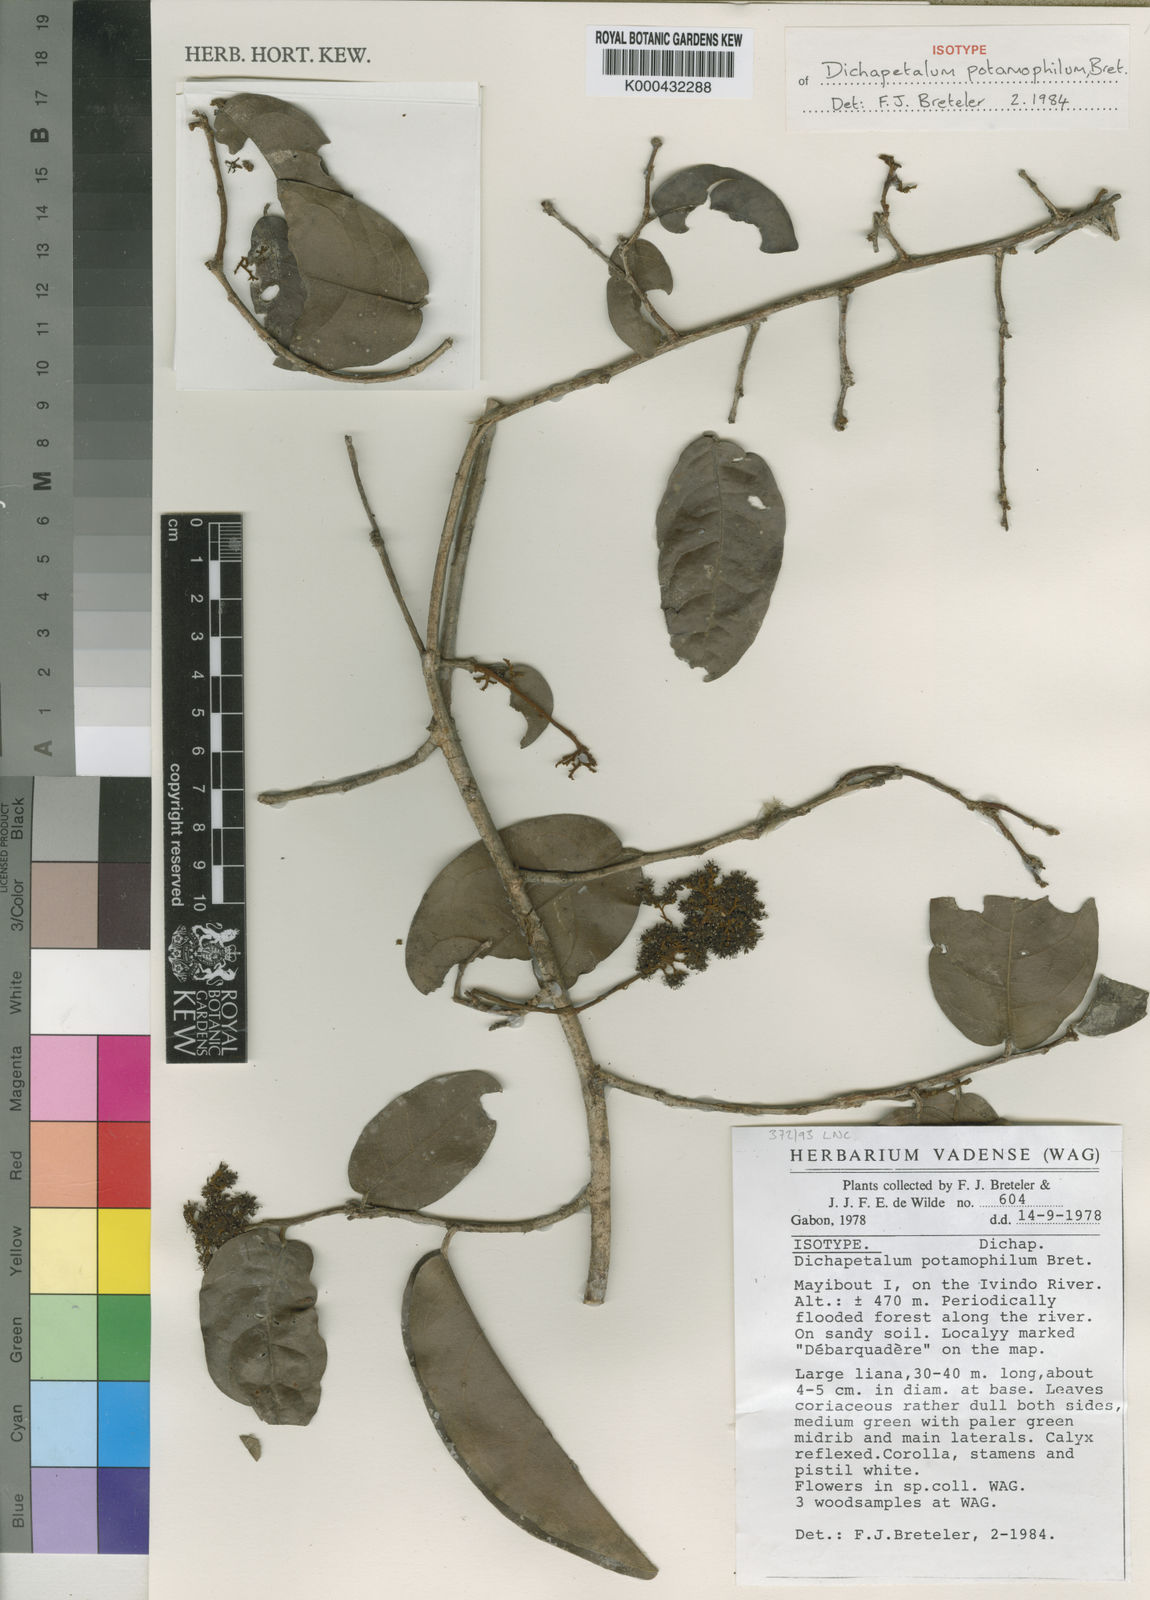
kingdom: Plantae
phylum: Tracheophyta
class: Magnoliopsida
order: Malpighiales
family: Dichapetalaceae
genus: Dichapetalum
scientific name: Dichapetalum potamophilum
